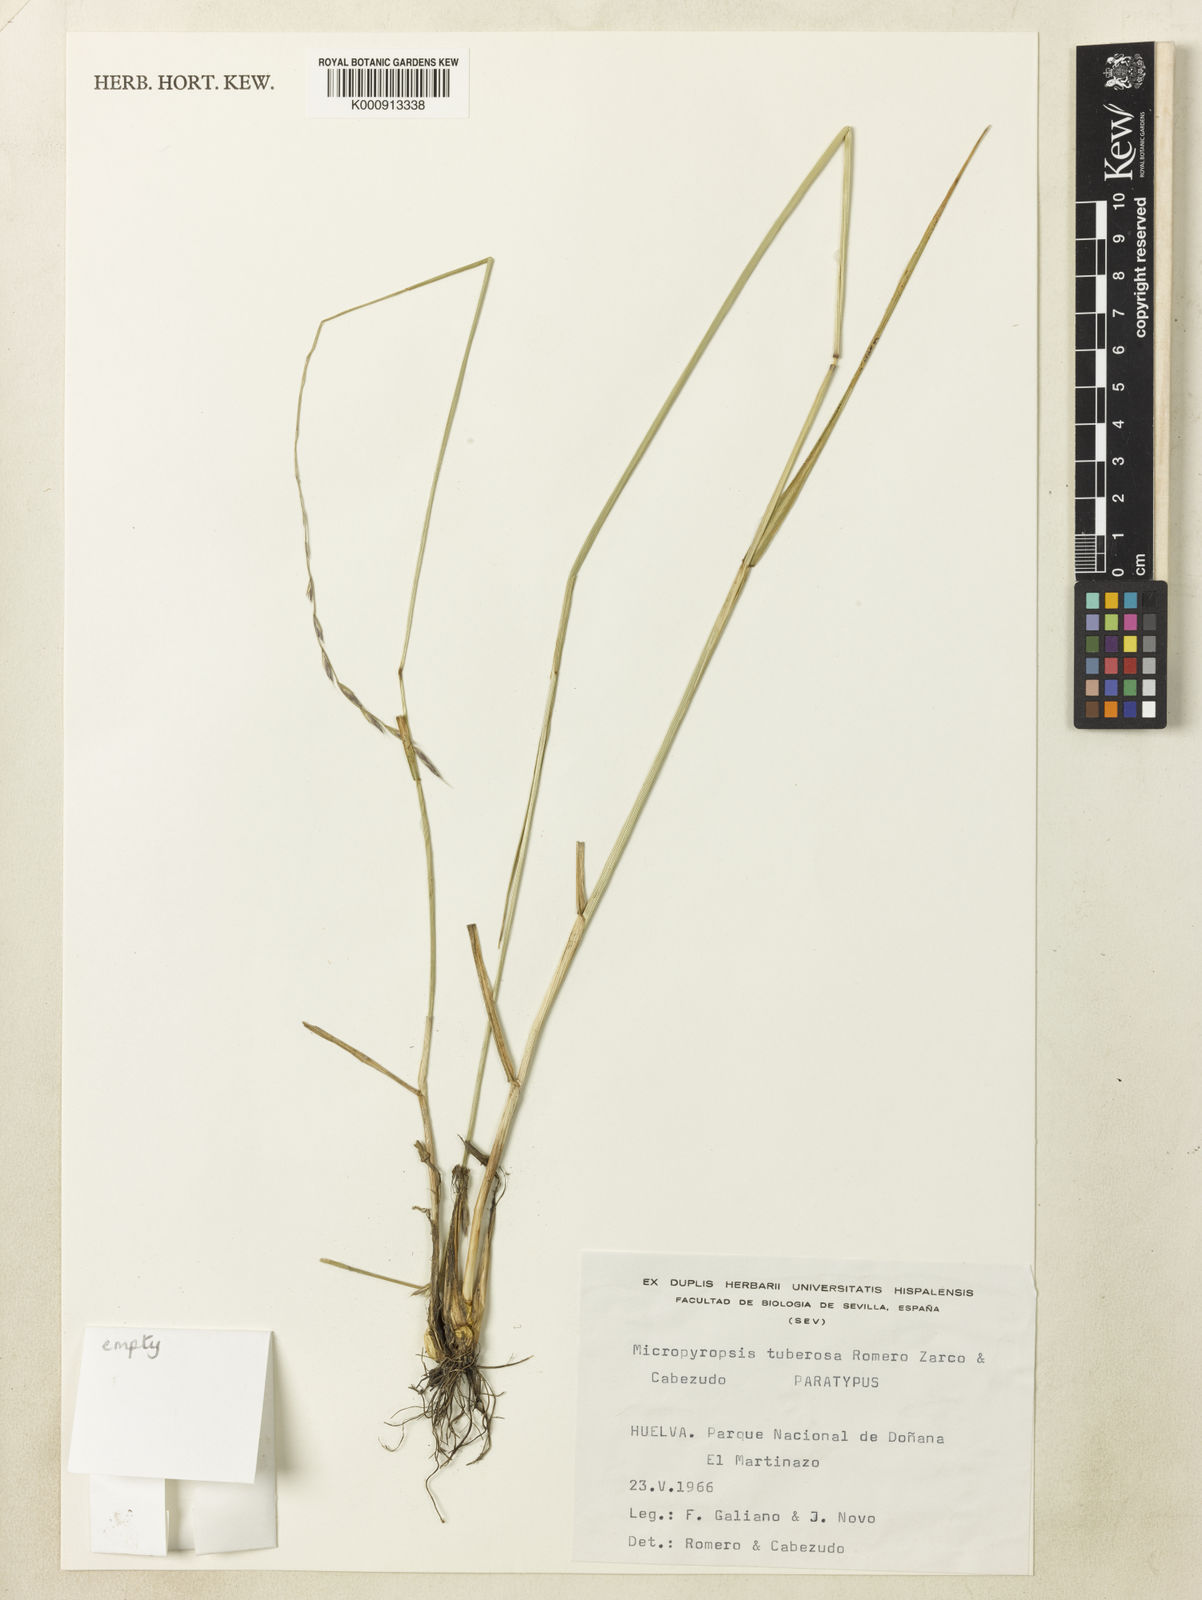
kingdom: Plantae
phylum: Tracheophyta
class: Liliopsida
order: Poales
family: Poaceae
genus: Lolium
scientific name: Lolium tuberosum
